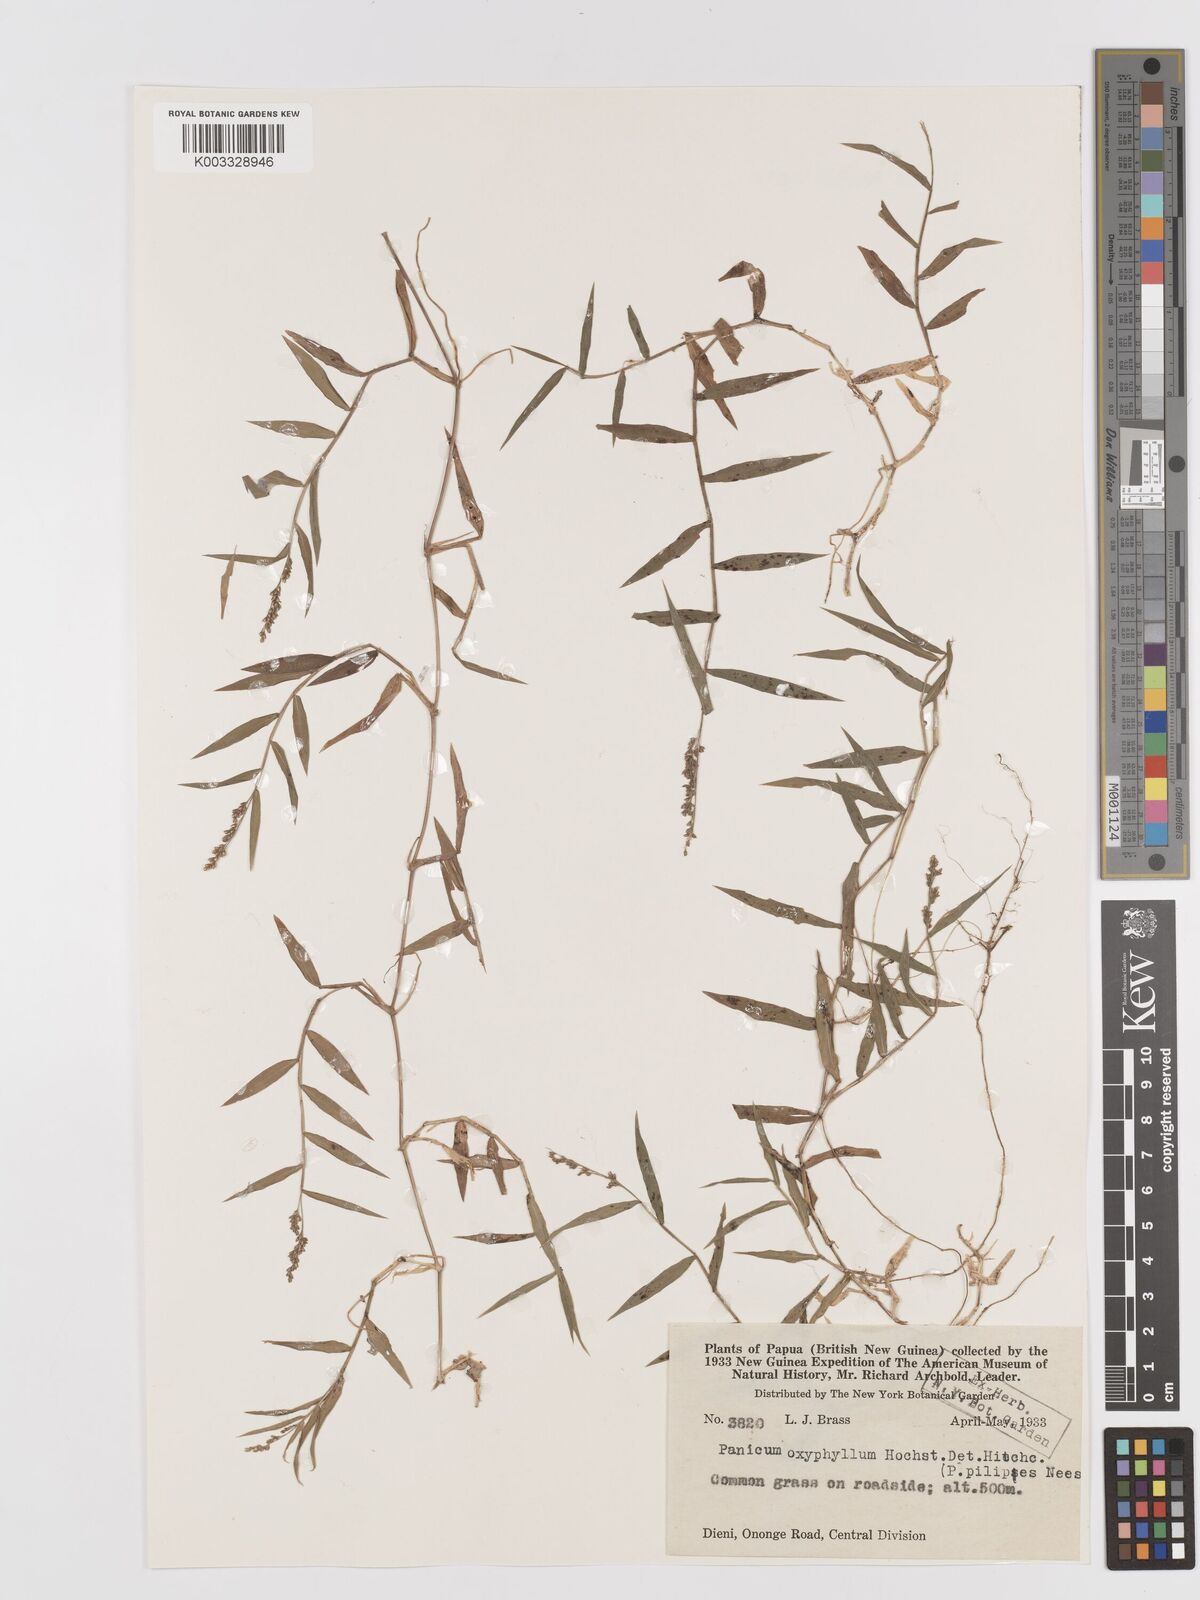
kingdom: Plantae
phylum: Tracheophyta
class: Liliopsida
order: Poales
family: Poaceae
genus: Cyrtococcum
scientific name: Cyrtococcum oxyphyllum
